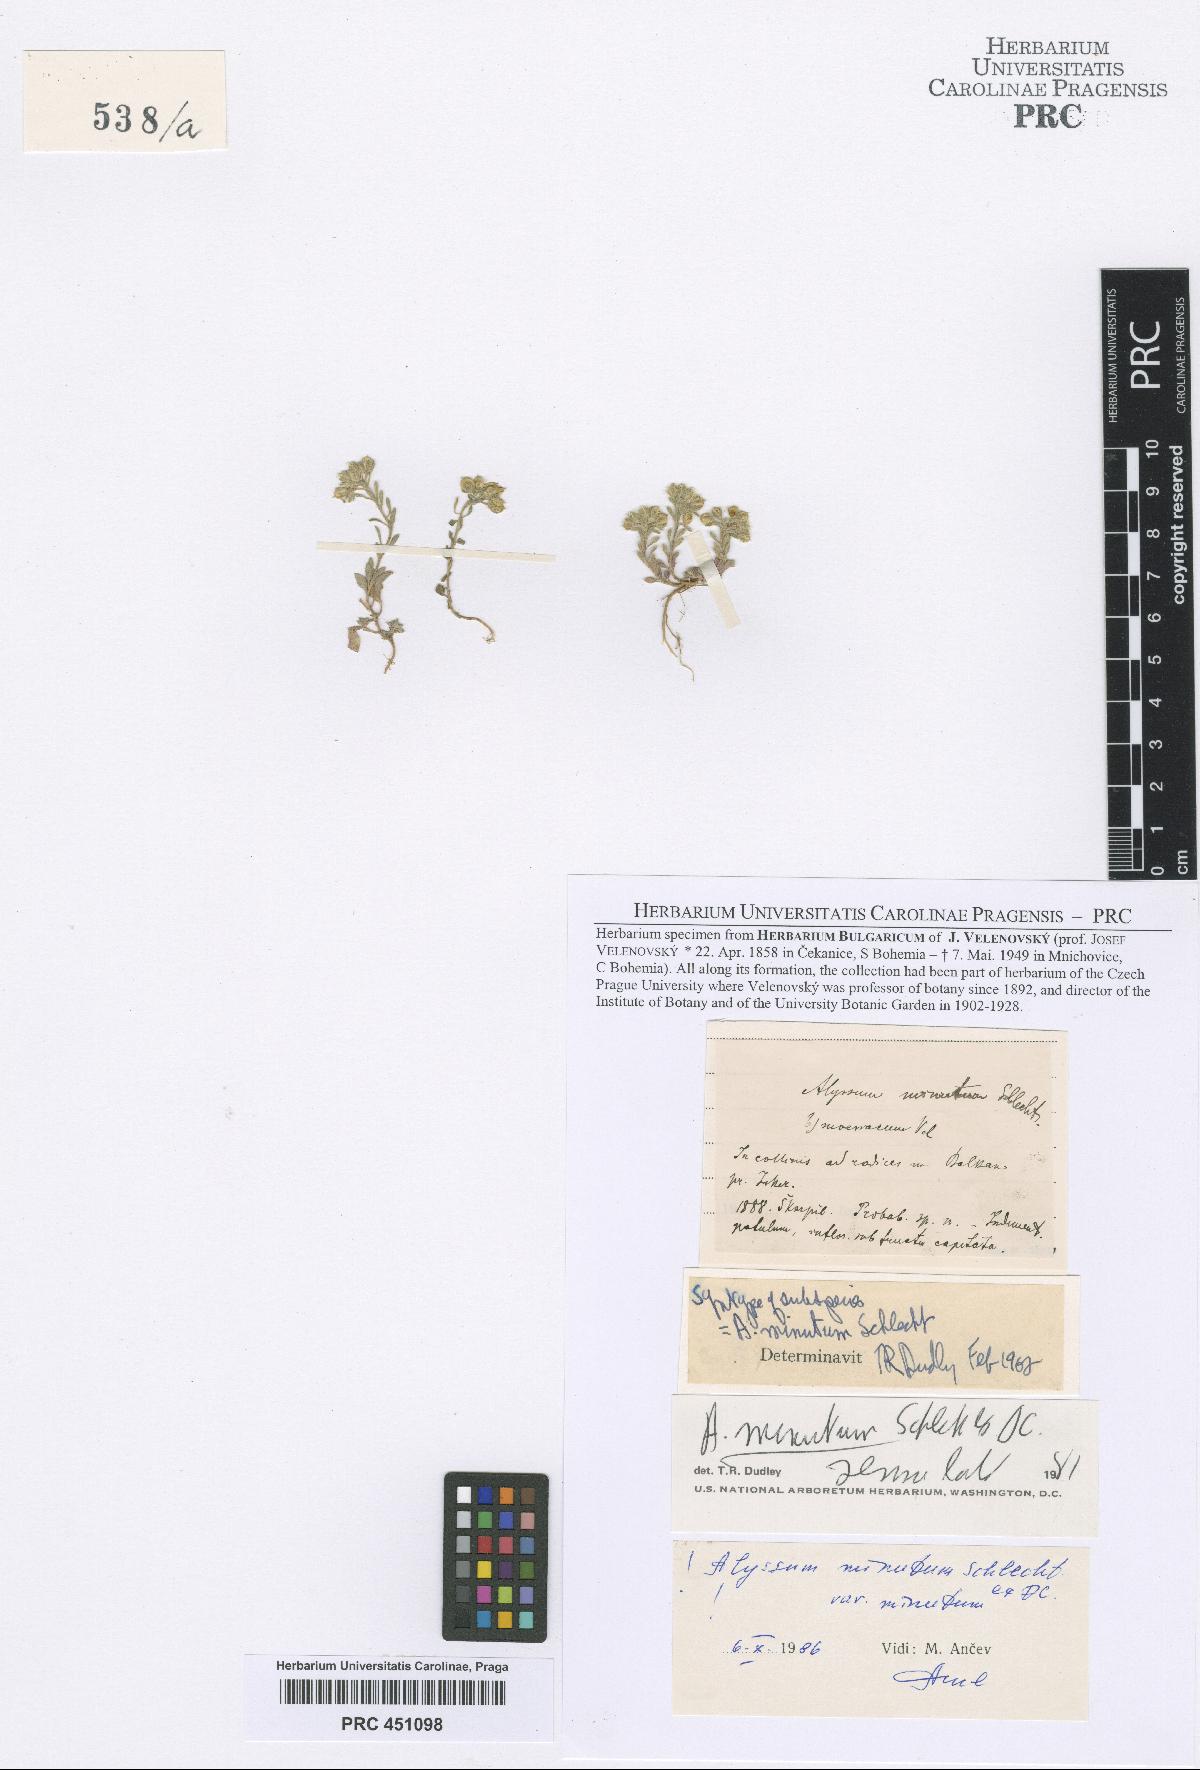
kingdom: Plantae
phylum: Tracheophyta
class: Magnoliopsida
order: Brassicales
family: Brassicaceae
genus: Alyssum
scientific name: Alyssum minutum
